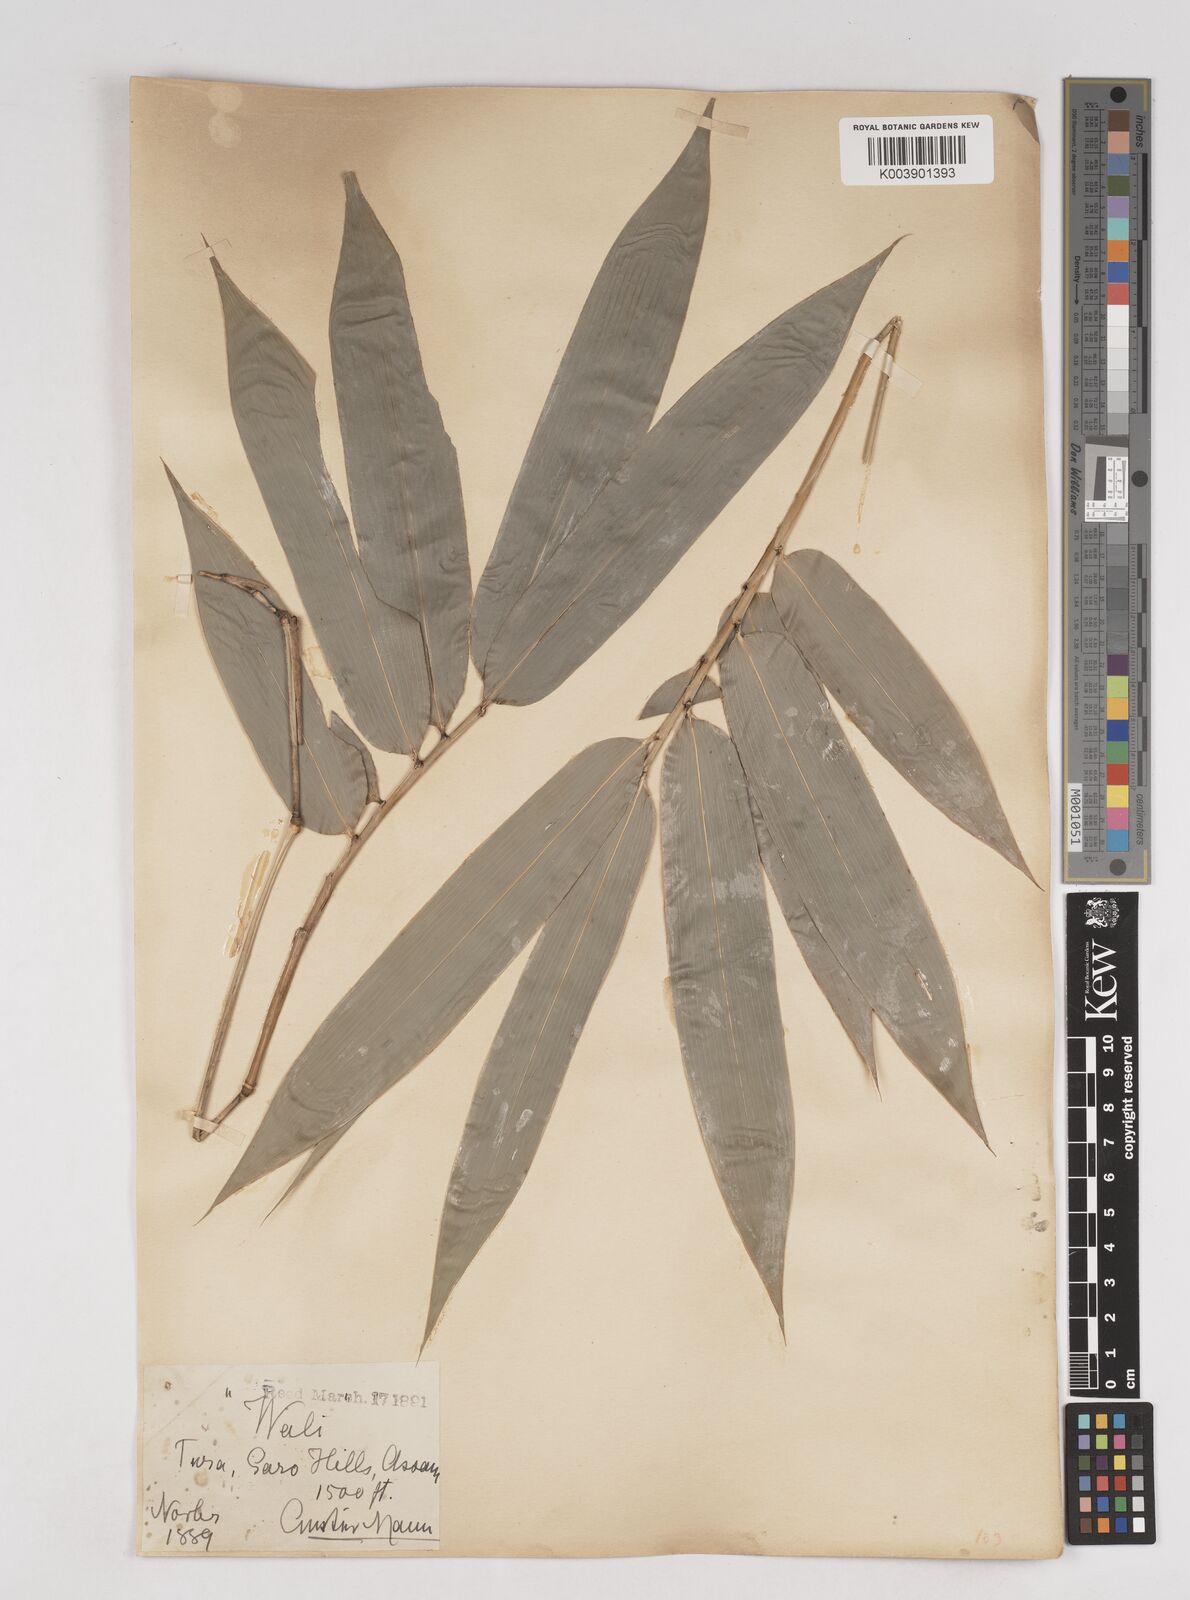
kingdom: Plantae
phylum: Tracheophyta
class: Liliopsida
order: Poales
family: Poaceae
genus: Schizostachyum
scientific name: Schizostachyum helferi
